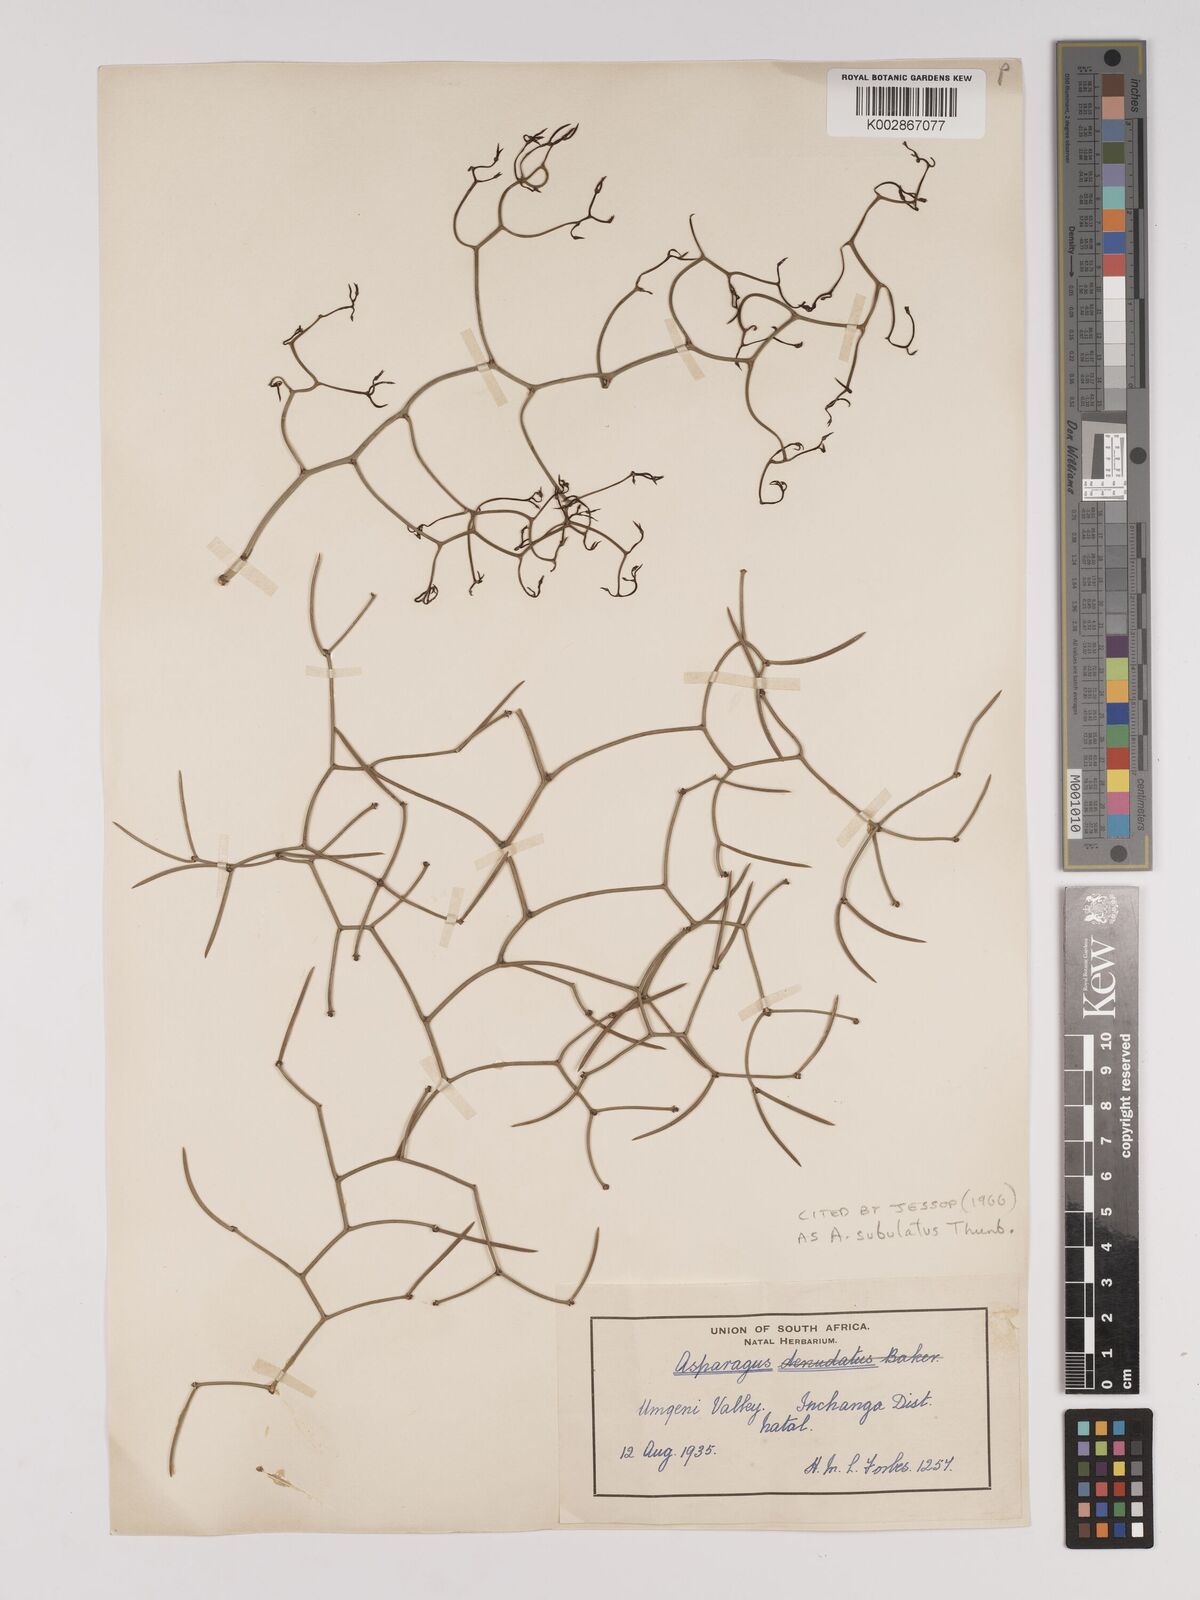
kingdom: Plantae
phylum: Tracheophyta
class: Liliopsida
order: Asparagales
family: Asparagaceae
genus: Asparagus
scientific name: Asparagus subulatus
